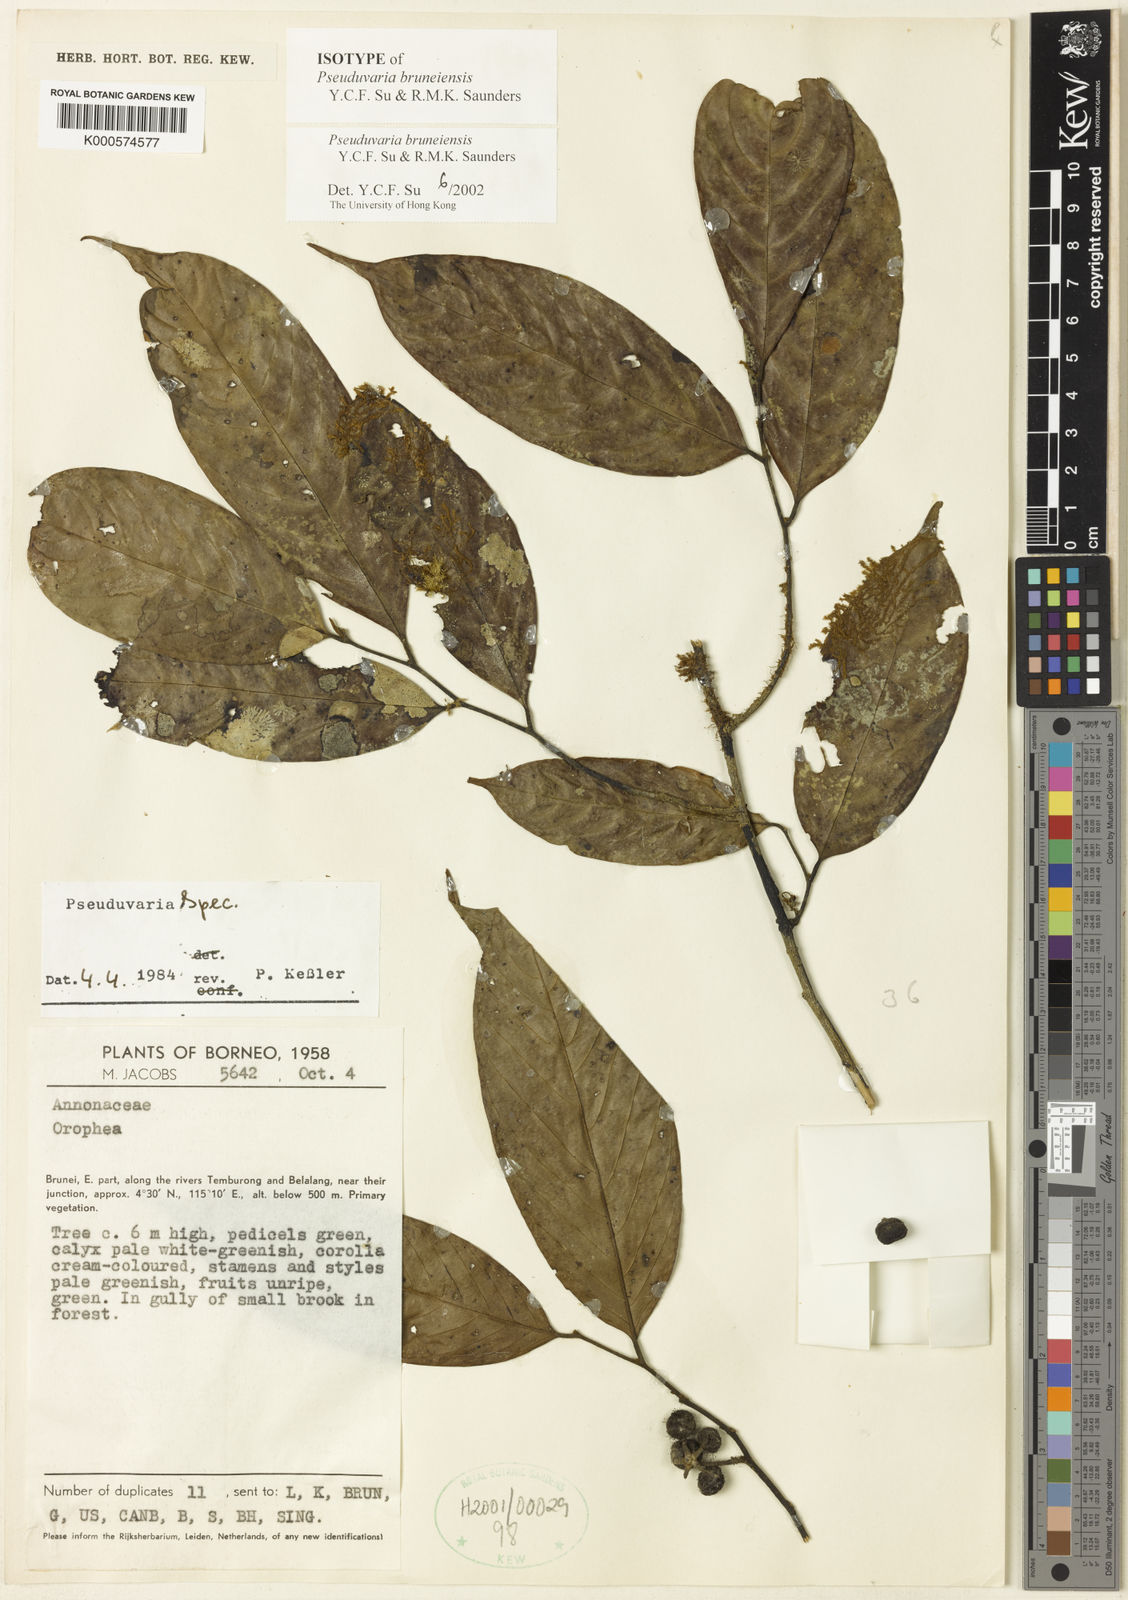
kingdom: Plantae
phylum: Tracheophyta
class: Magnoliopsida
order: Magnoliales
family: Annonaceae
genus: Pseuduvaria
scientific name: Pseuduvaria bruneiensis
